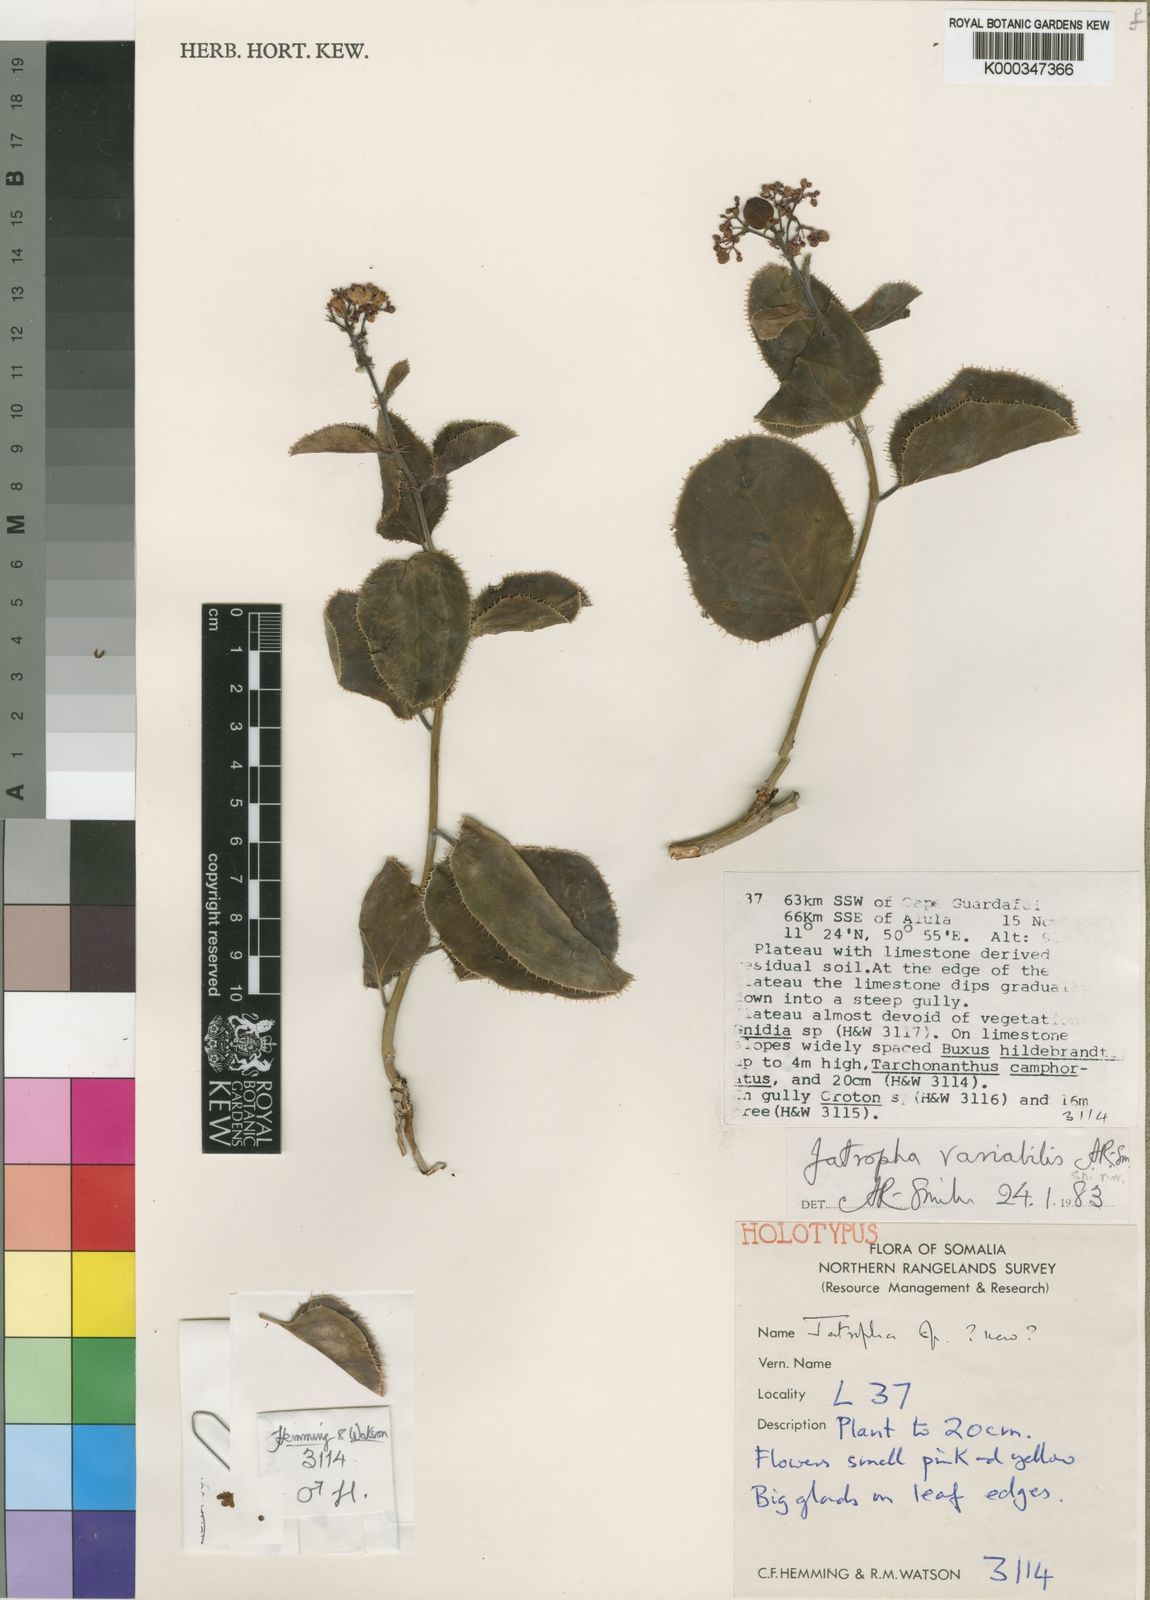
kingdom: Plantae
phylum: Tracheophyta
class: Magnoliopsida
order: Malpighiales
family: Euphorbiaceae
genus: Jatropha
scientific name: Jatropha variabilis
